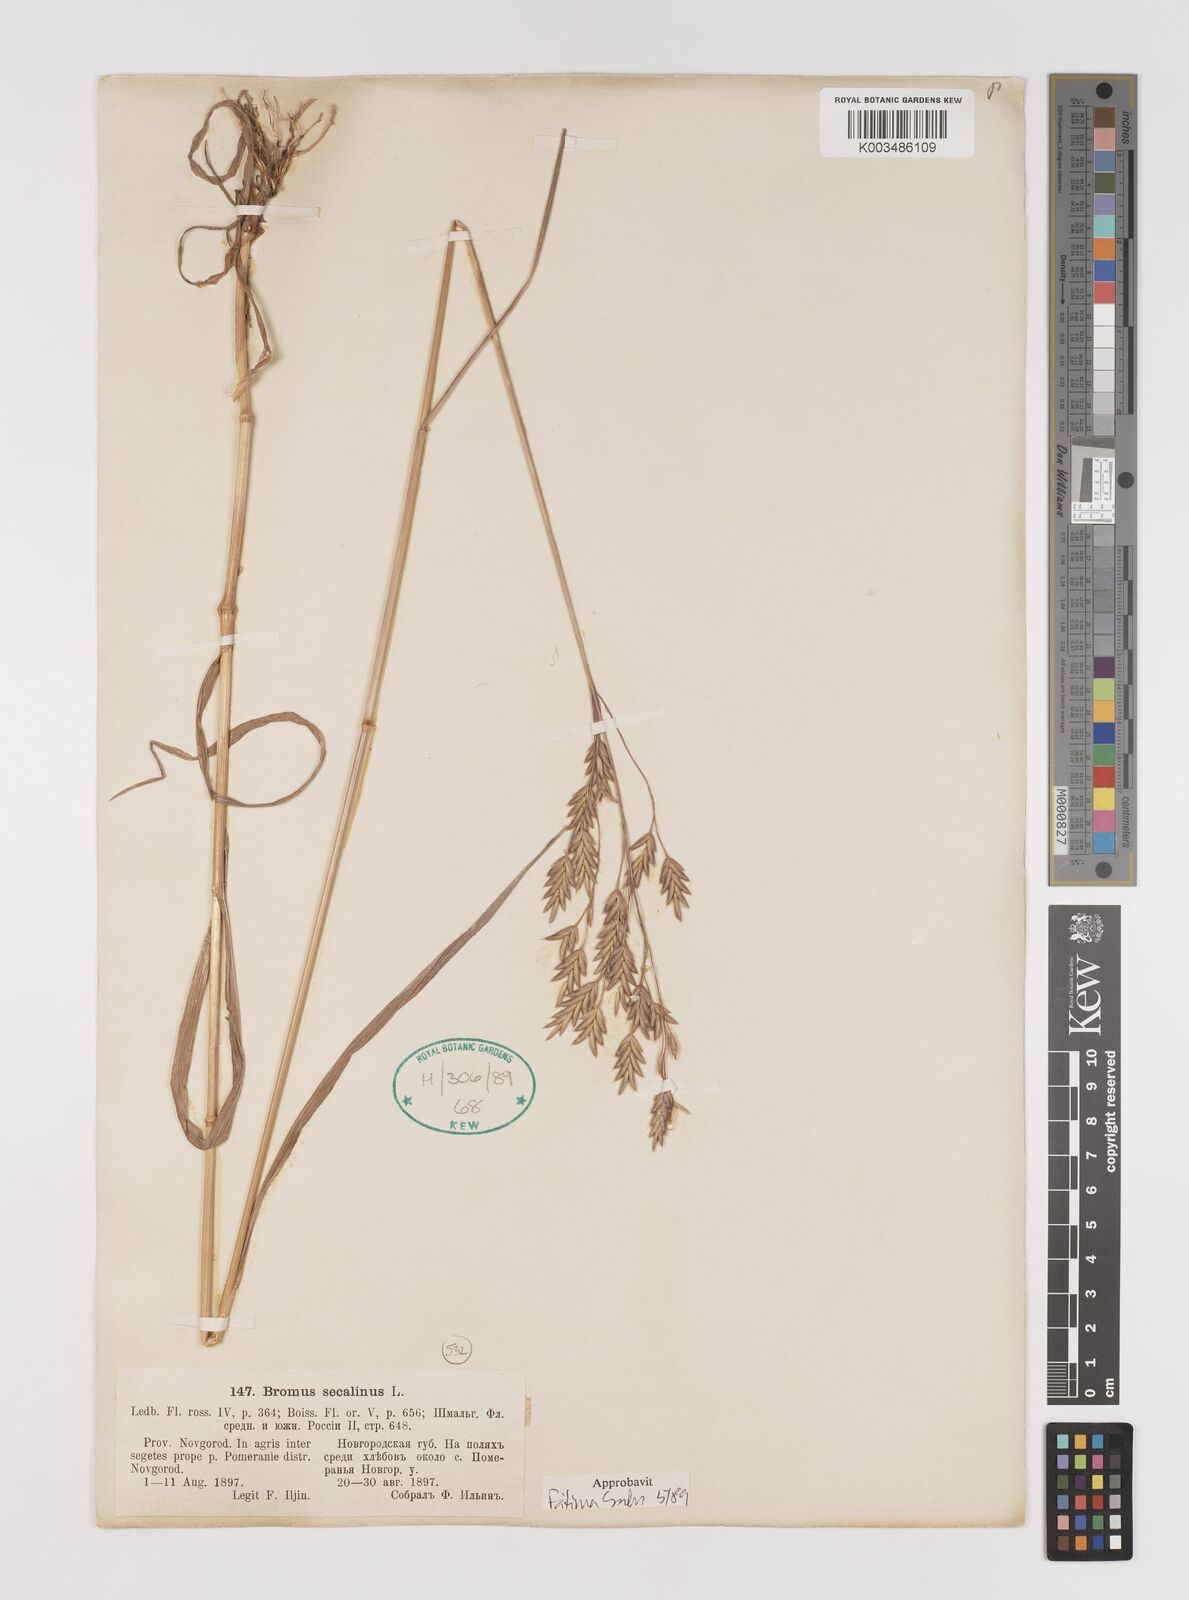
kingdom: Plantae
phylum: Tracheophyta
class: Liliopsida
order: Poales
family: Poaceae
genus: Bromus
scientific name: Bromus secalinus
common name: Rye brome
